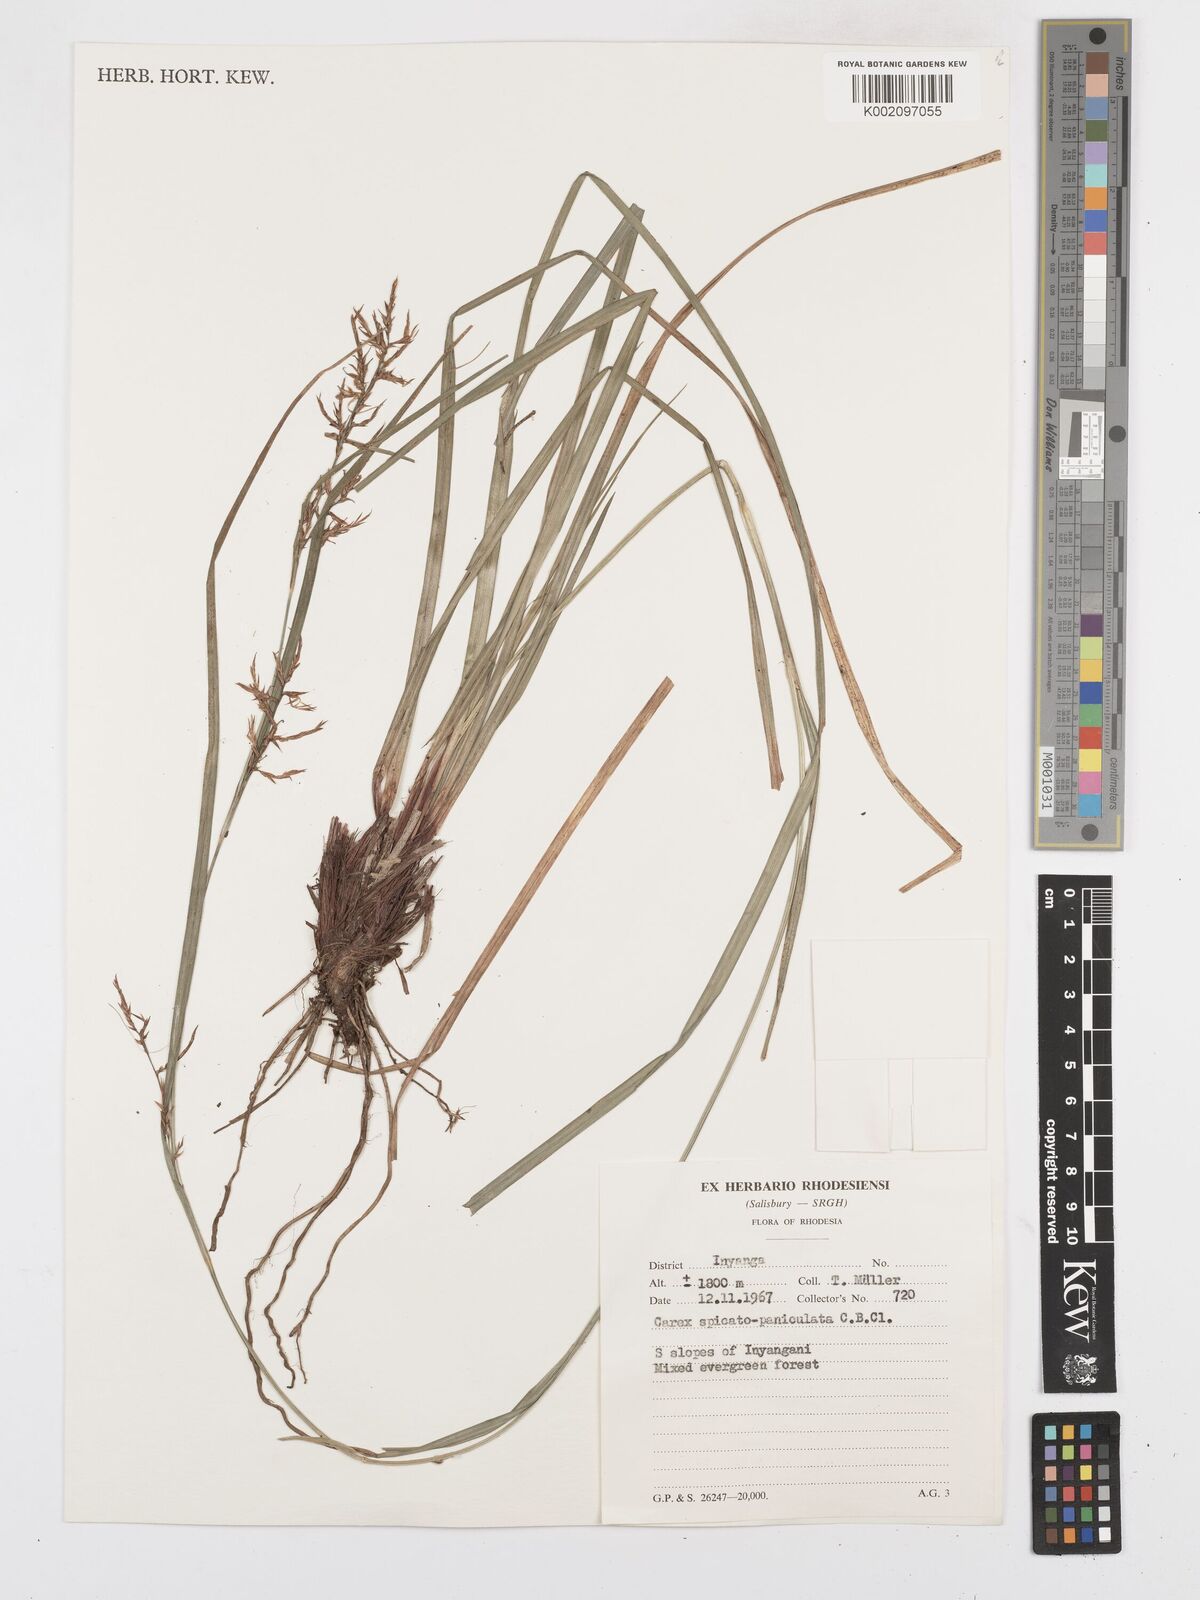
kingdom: Plantae
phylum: Tracheophyta
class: Liliopsida
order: Poales
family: Cyperaceae
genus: Carex
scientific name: Carex spicatopaniculata
